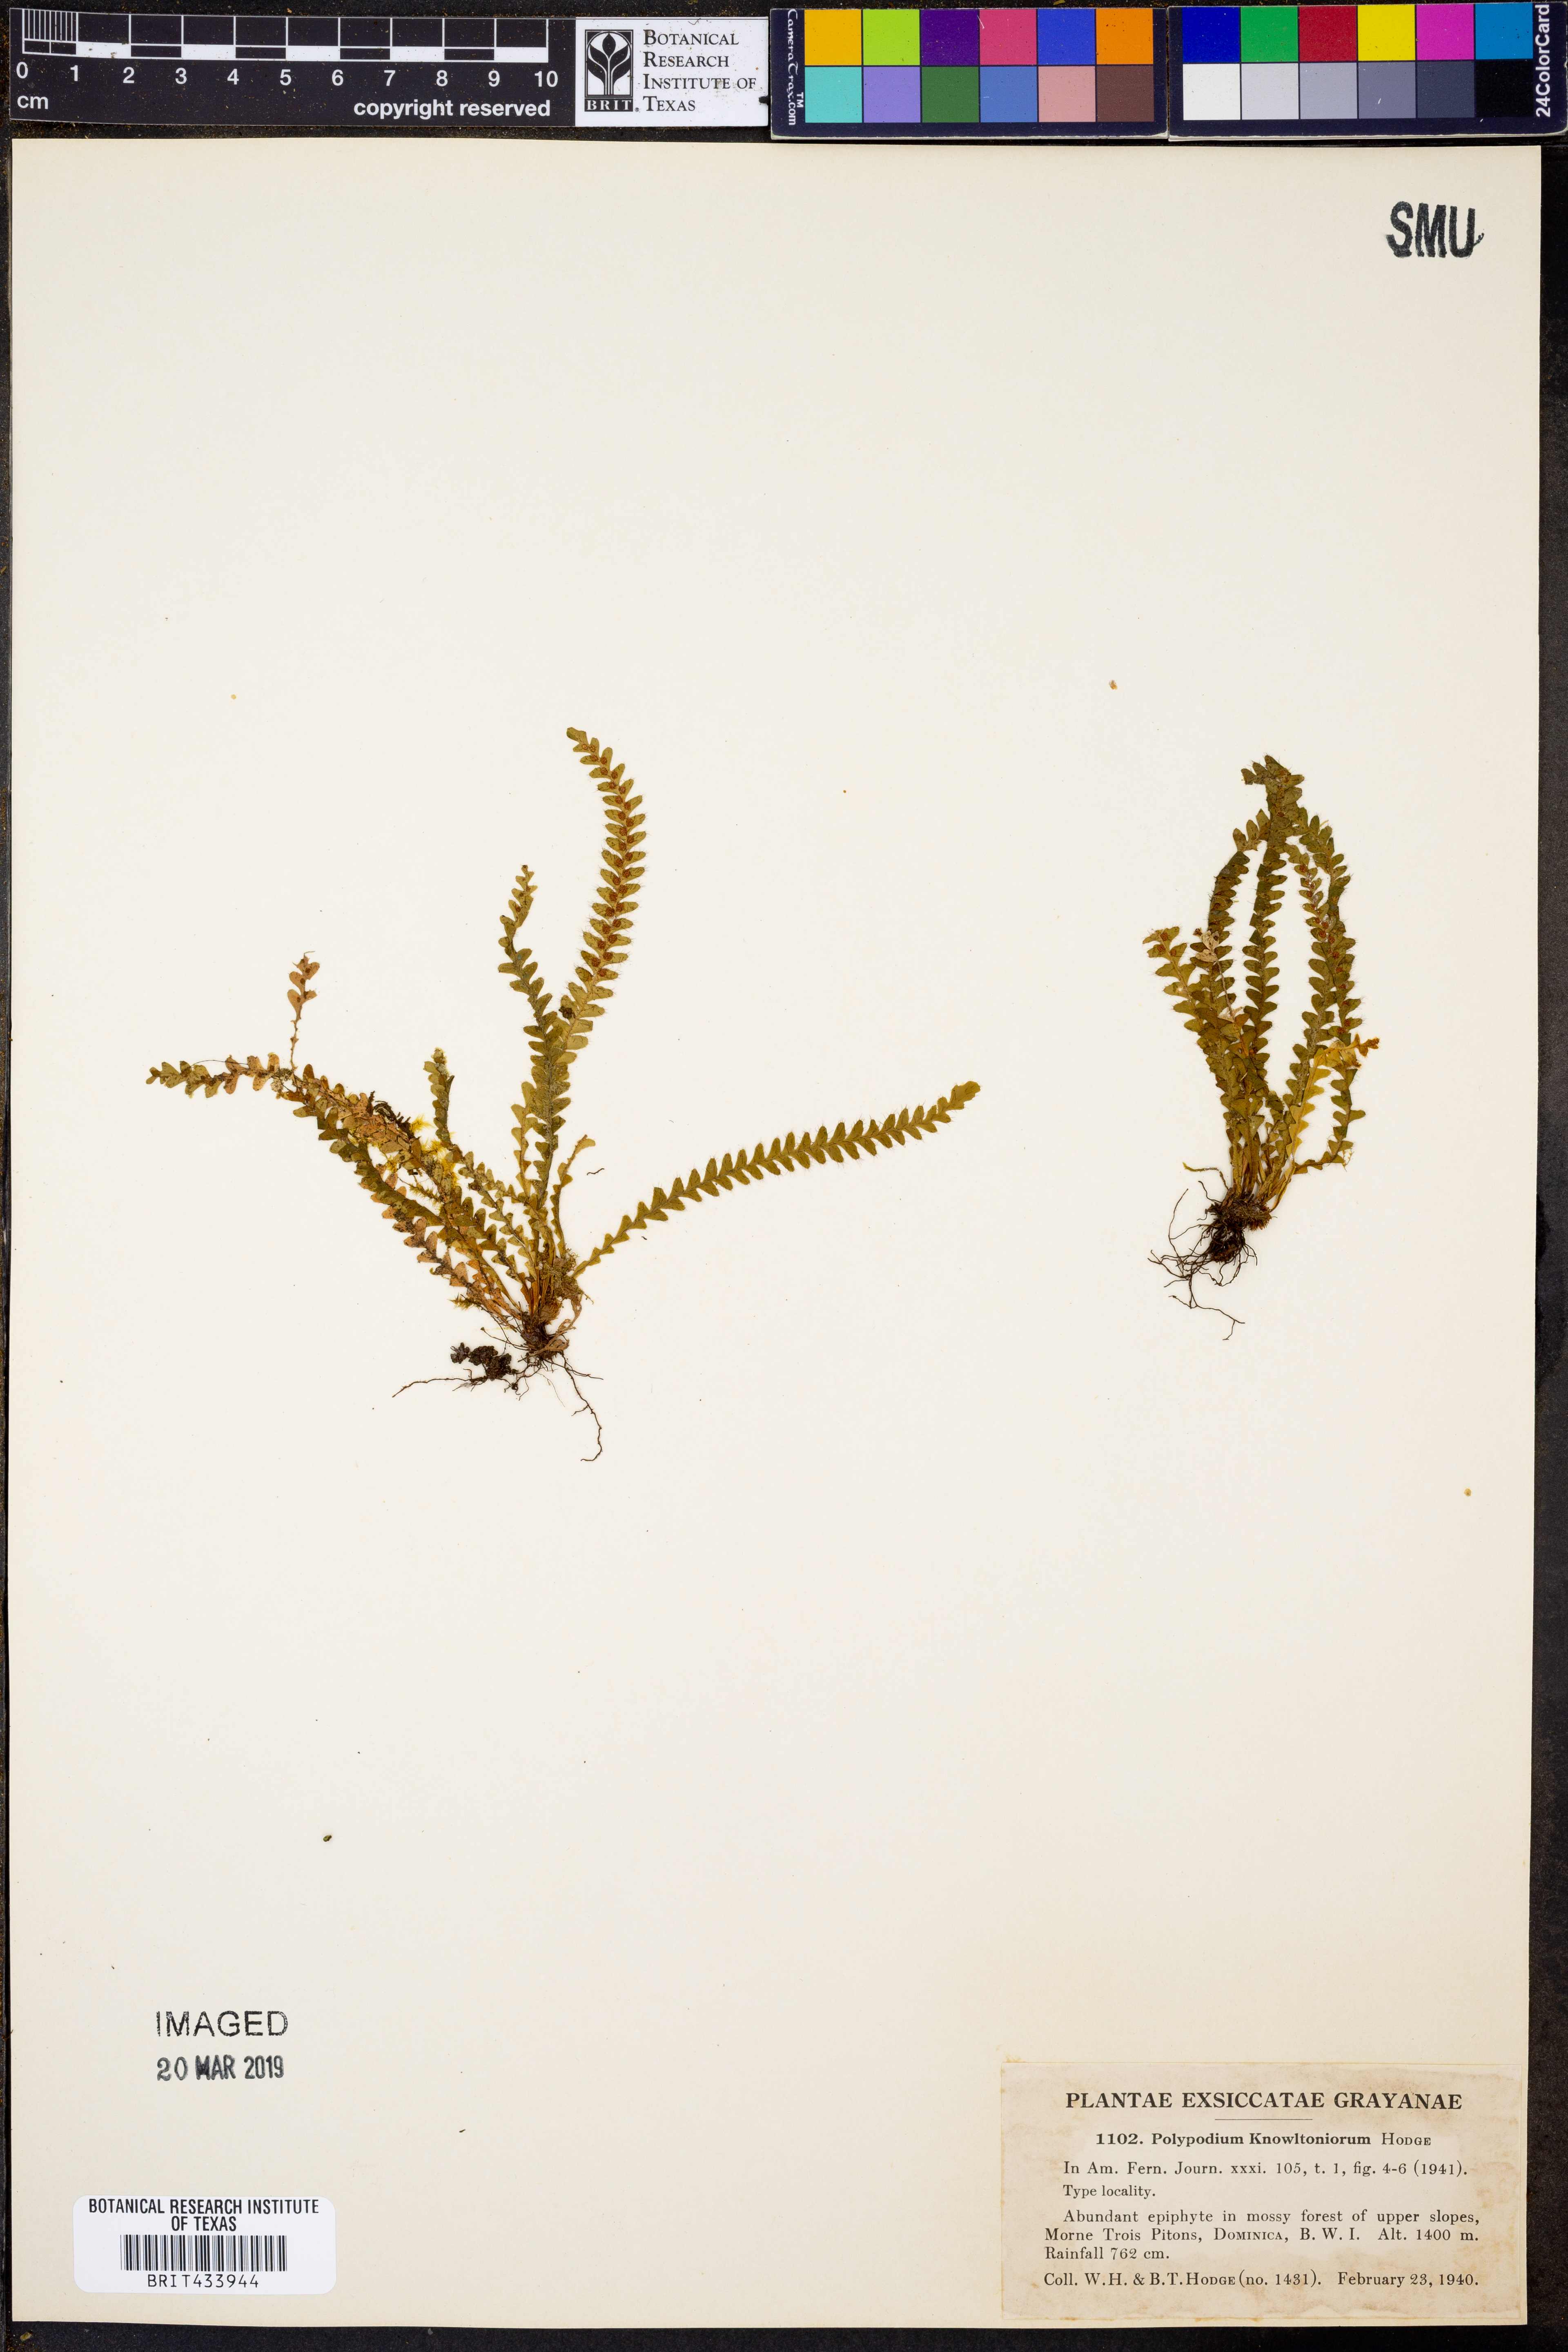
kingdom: Plantae
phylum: Tracheophyta
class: Polypodiopsida
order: Polypodiales
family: Polypodiaceae
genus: Moranopteris
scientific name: Moranopteris knowltoniorum
